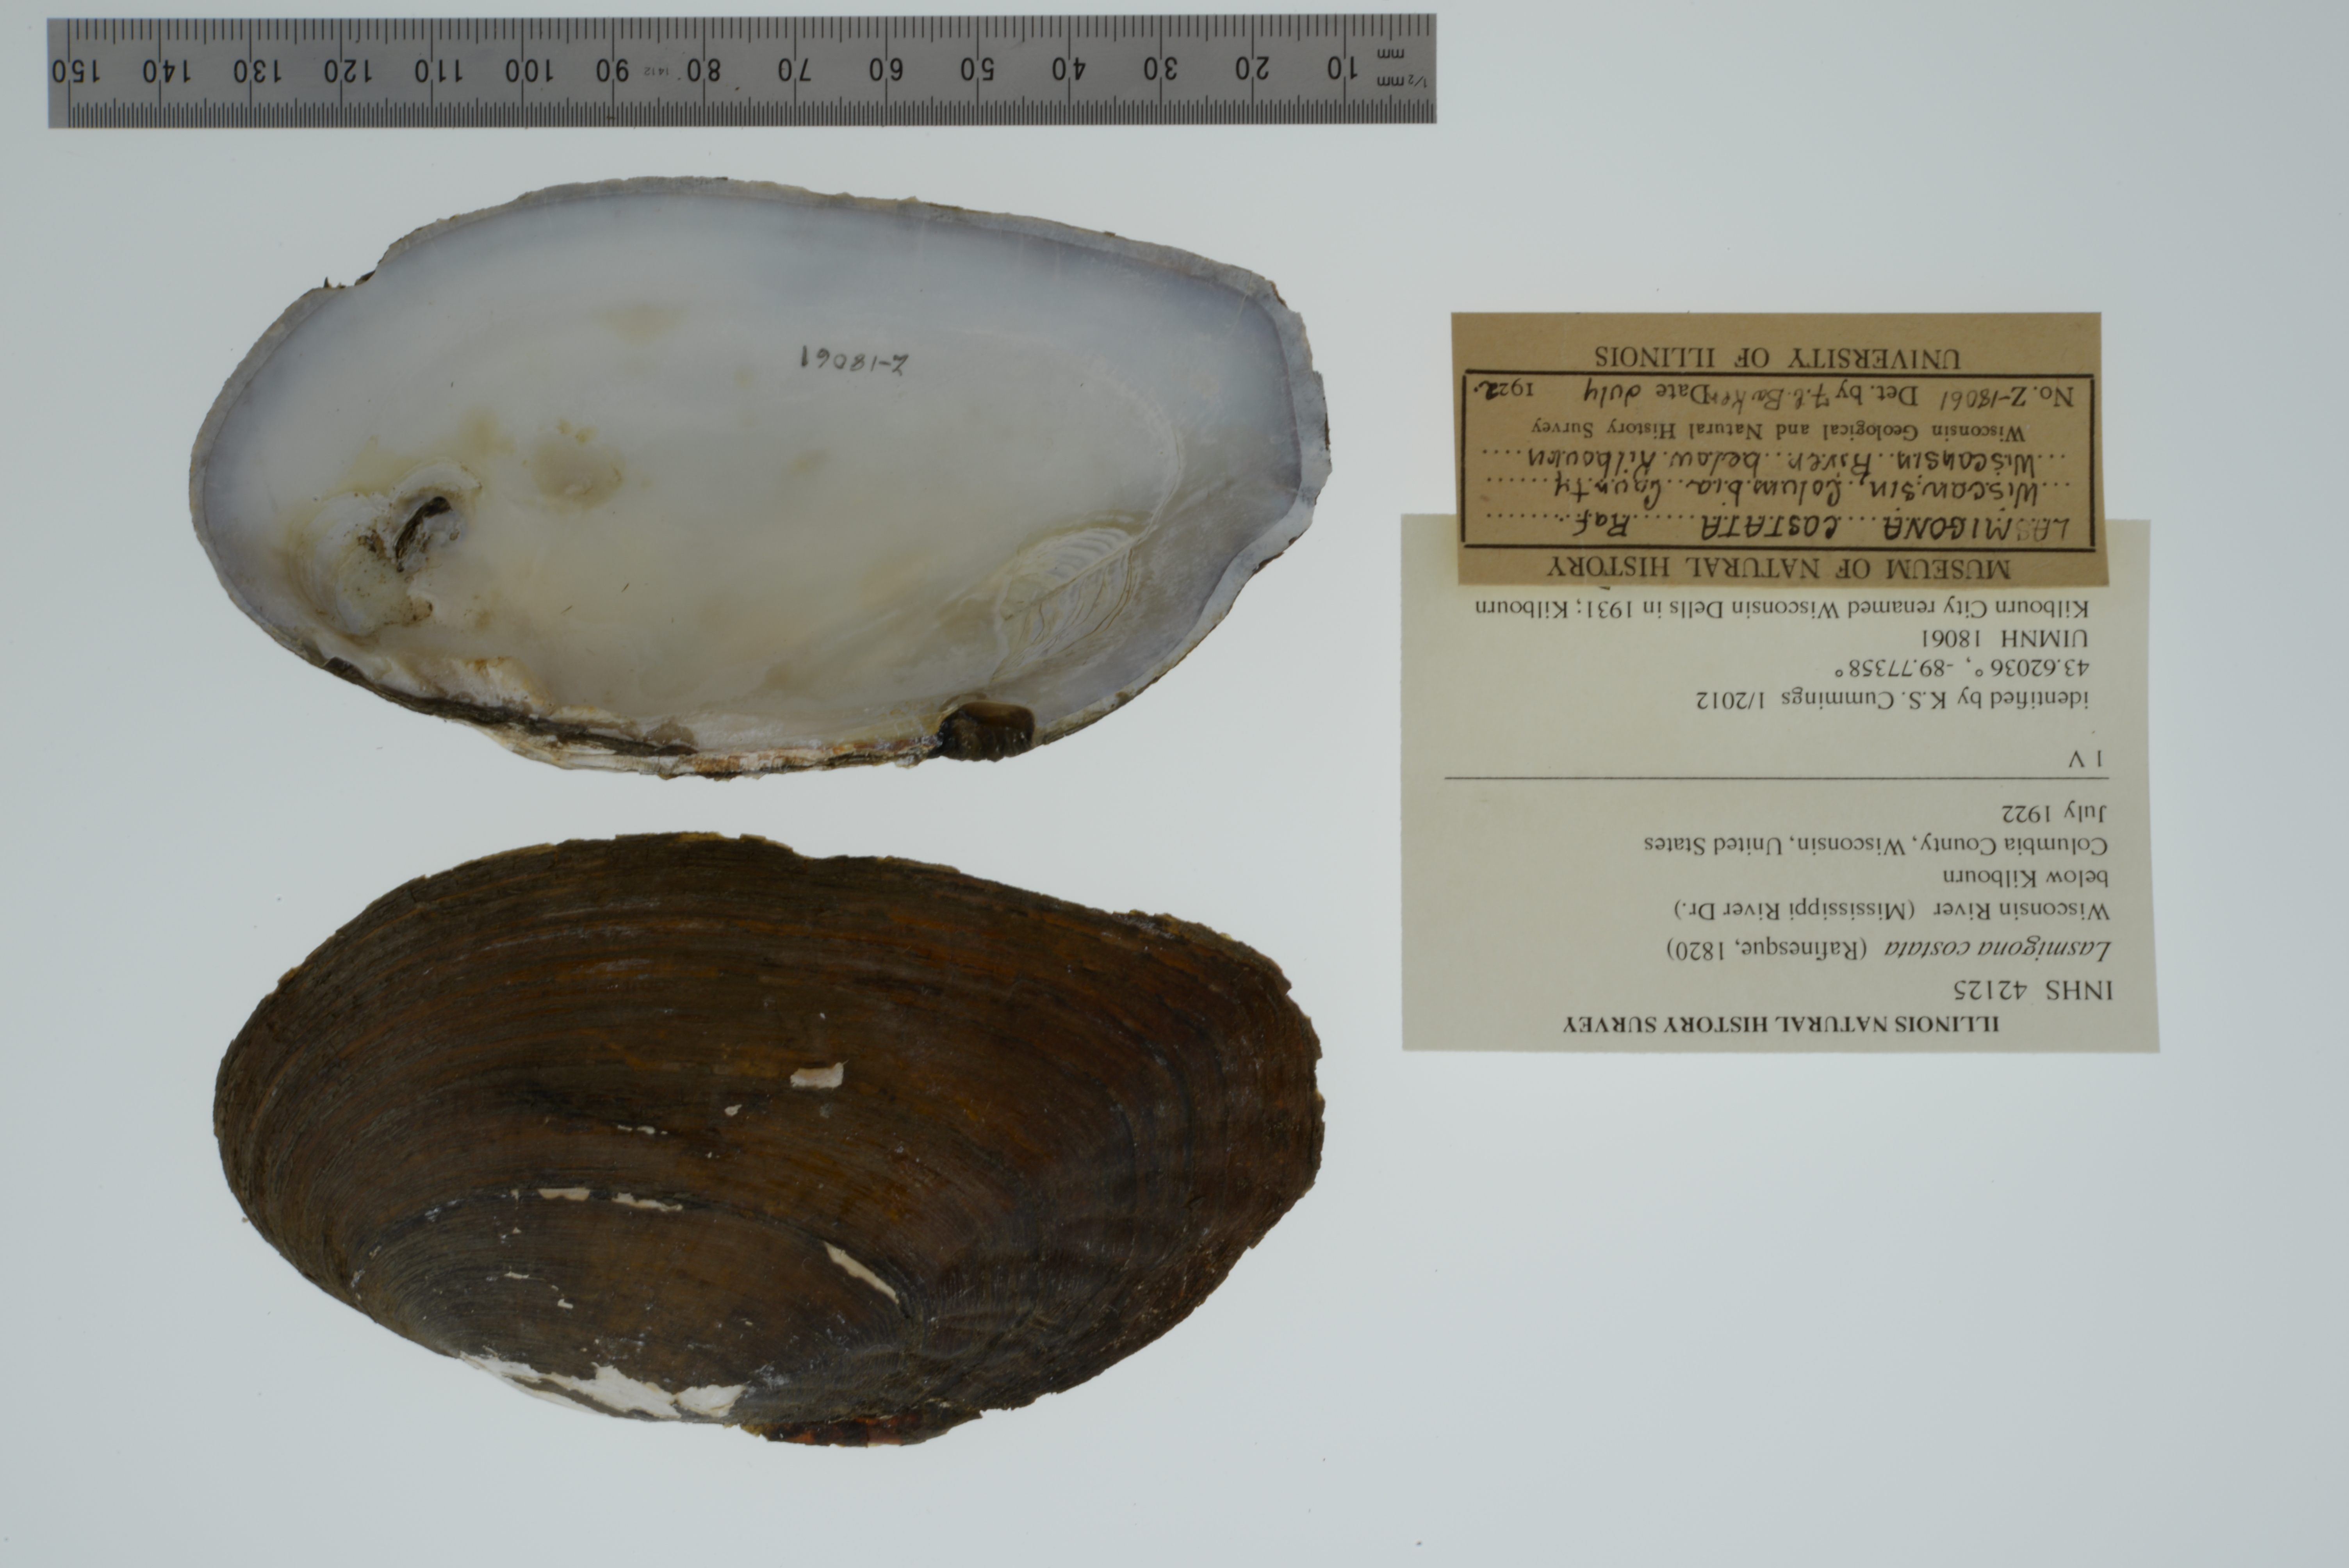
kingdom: Animalia
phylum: Mollusca
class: Bivalvia
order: Unionida
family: Unionidae
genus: Lasmigona
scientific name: Lasmigona costata
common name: Flutedshell
